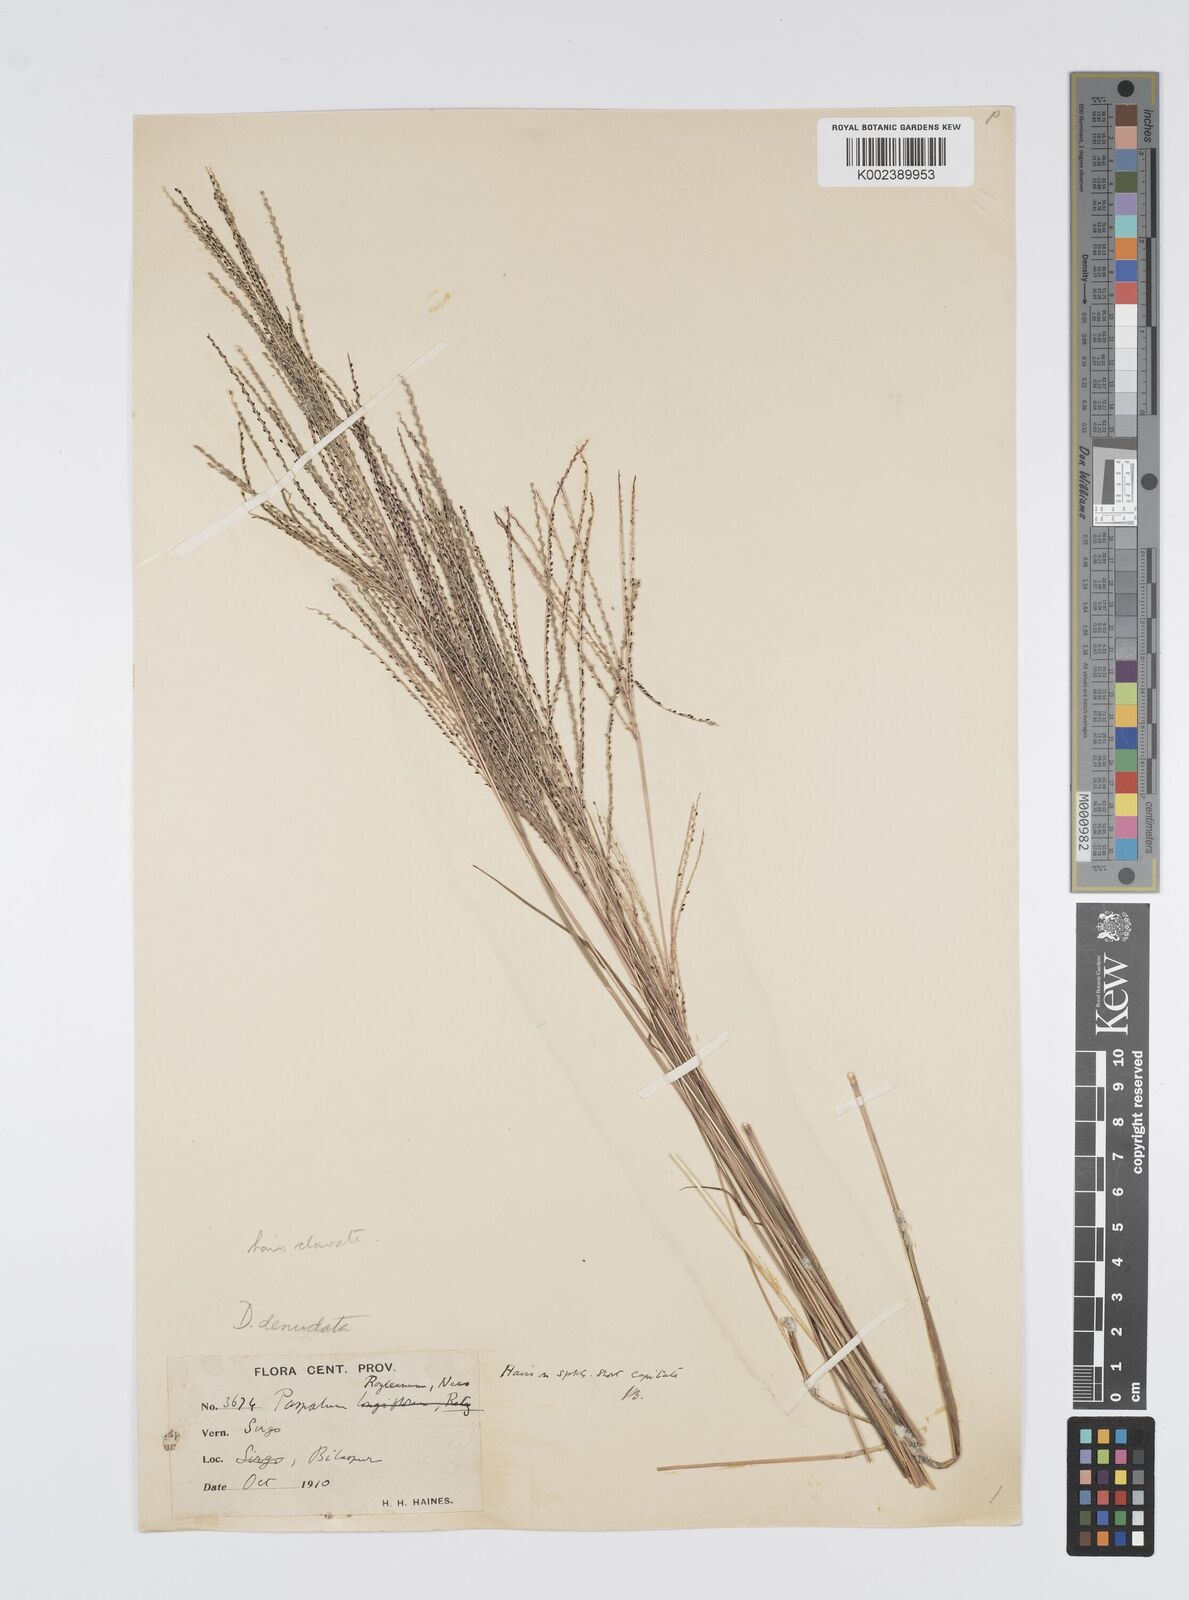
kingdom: Plantae
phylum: Tracheophyta
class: Liliopsida
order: Poales
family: Poaceae
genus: Digitaria
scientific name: Digitaria stricta
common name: Crabgrass
